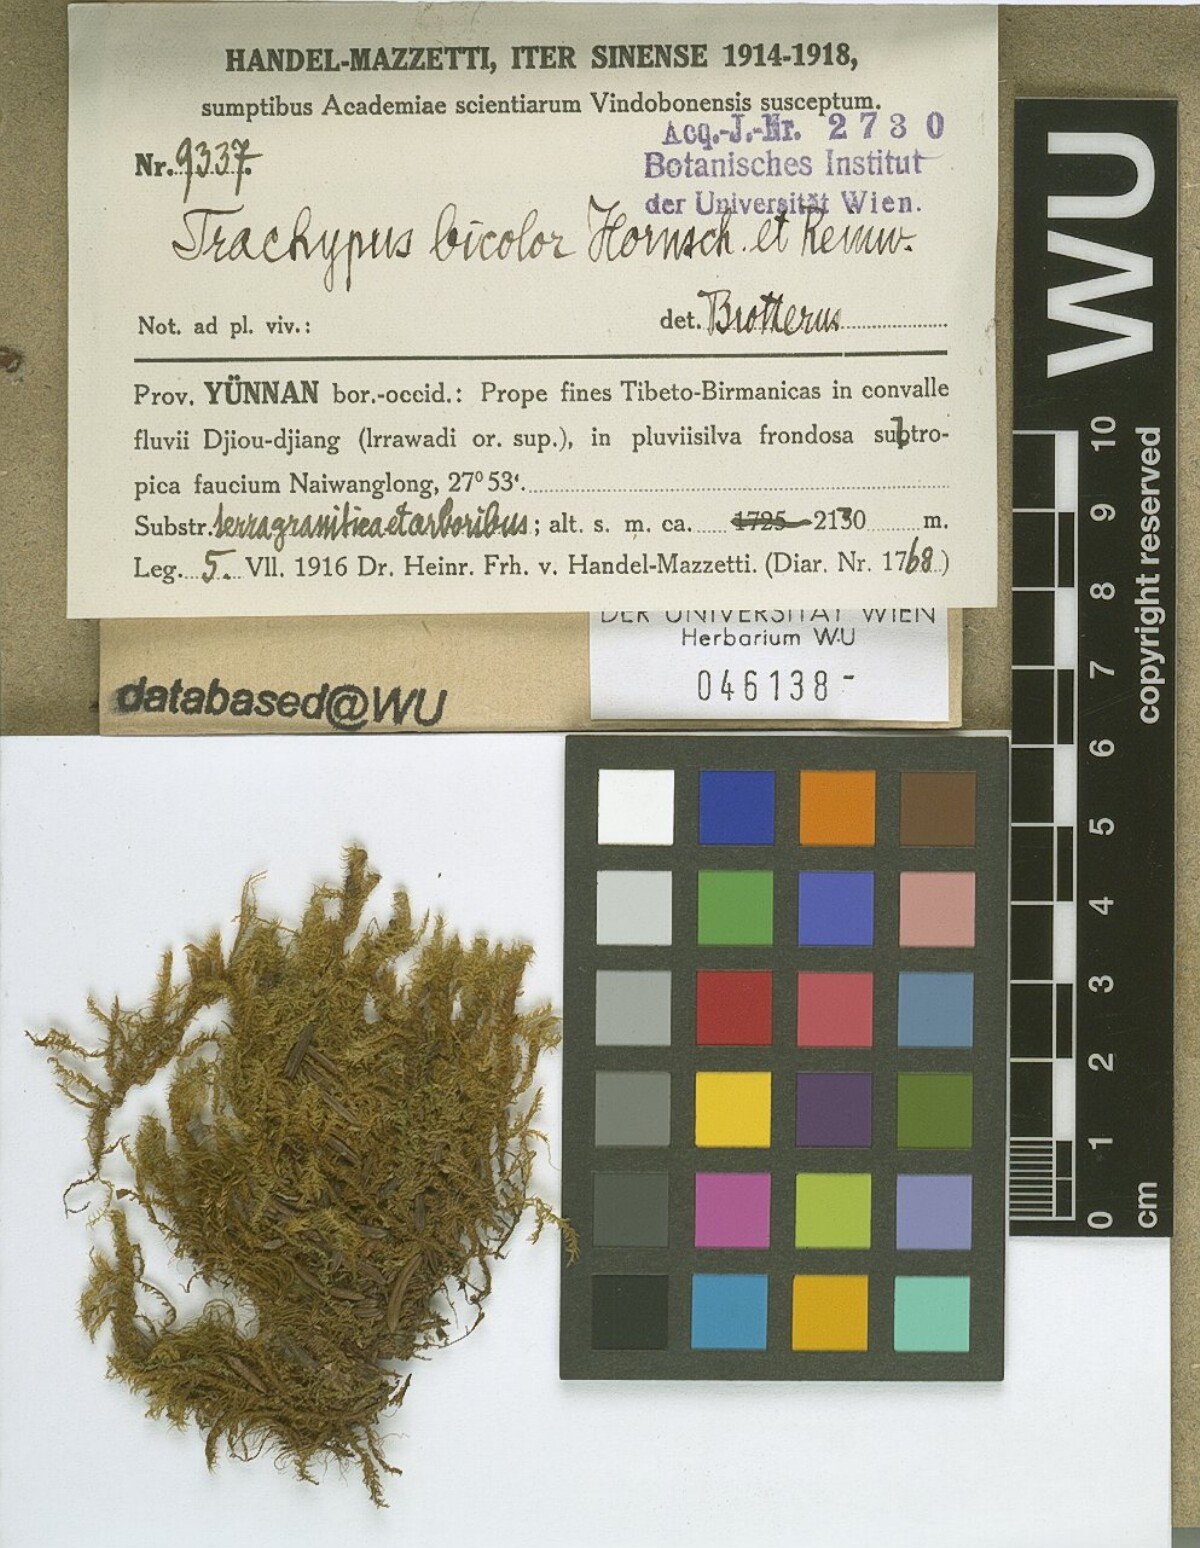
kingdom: Plantae
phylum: Bryophyta
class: Bryopsida
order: Hypnales
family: Meteoriaceae
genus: Trachypus
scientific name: Trachypus bicolor
